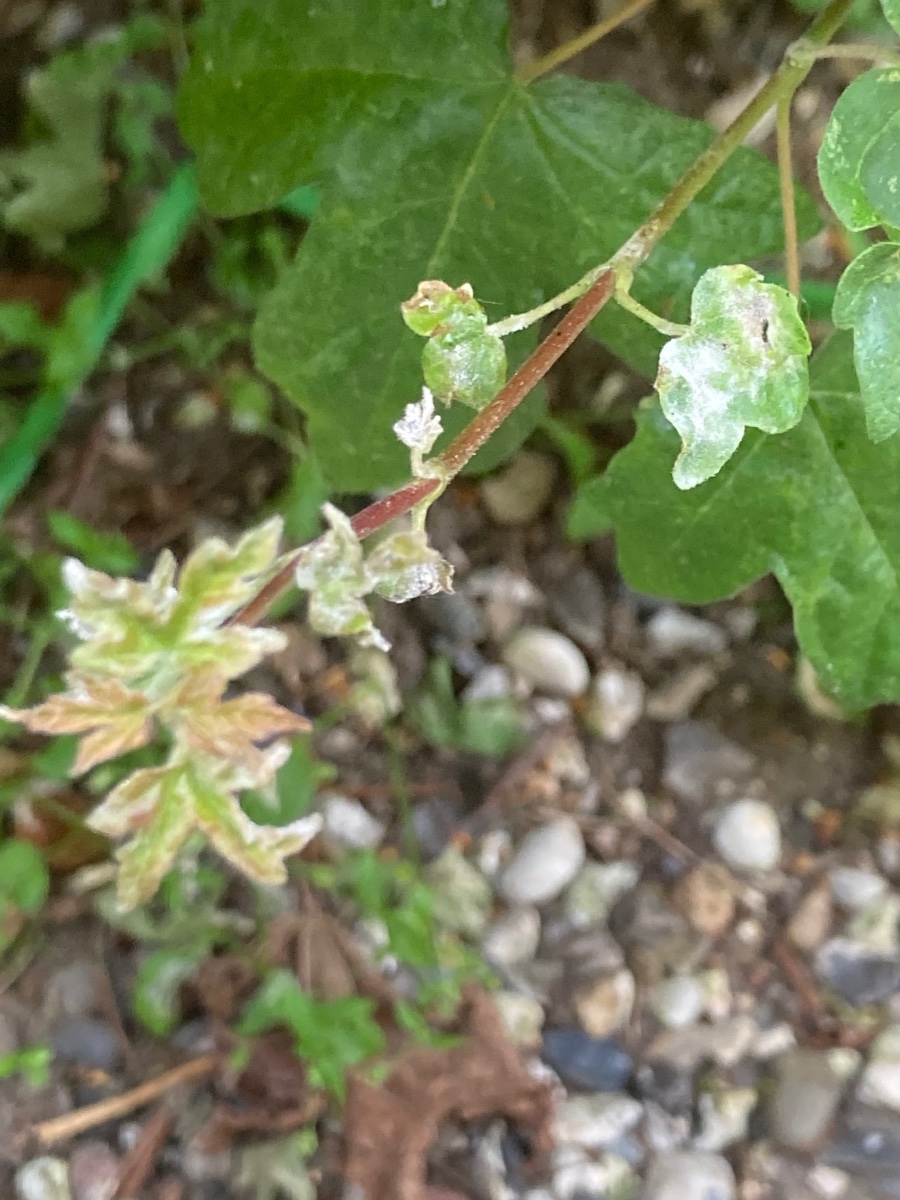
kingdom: Fungi
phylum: Ascomycota
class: Leotiomycetes
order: Helotiales
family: Erysiphaceae
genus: Sawadaea
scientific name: Sawadaea bicornis
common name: Maple mildew
